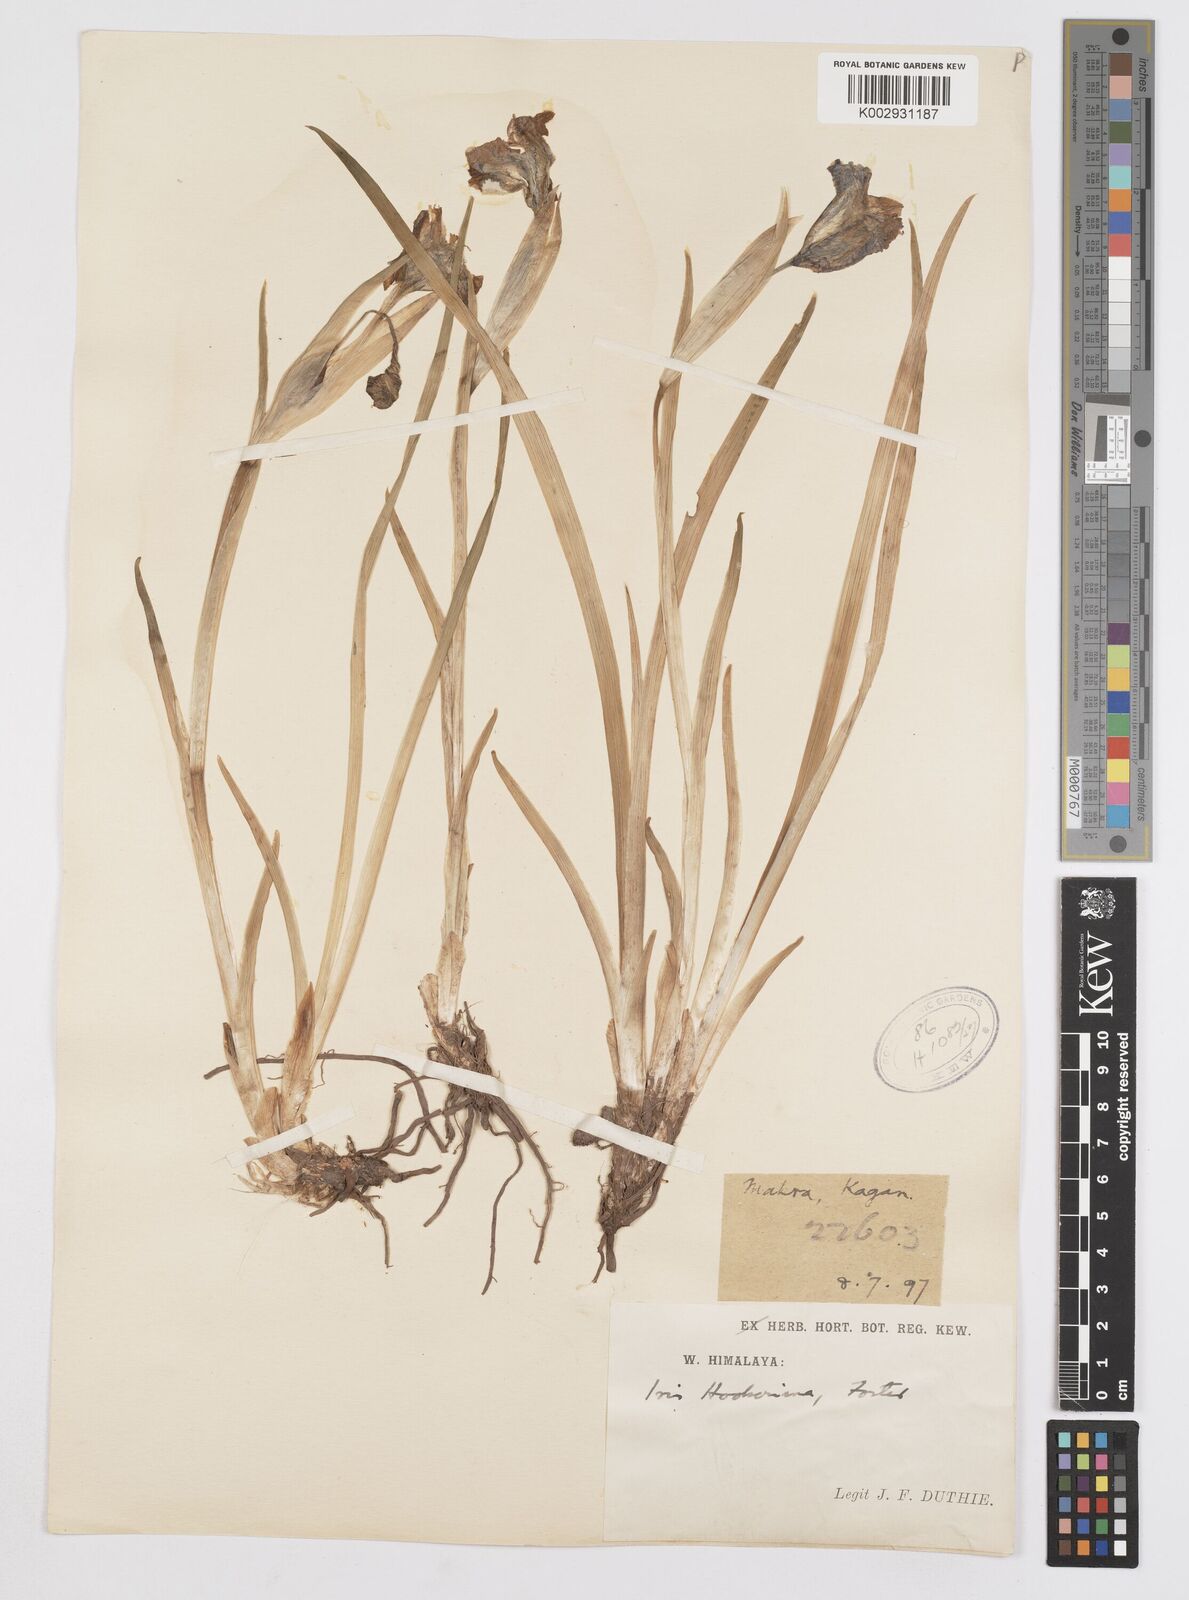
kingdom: Plantae
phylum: Tracheophyta
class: Liliopsida
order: Asparagales
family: Iridaceae
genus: Iris
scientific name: Iris hookeriana
